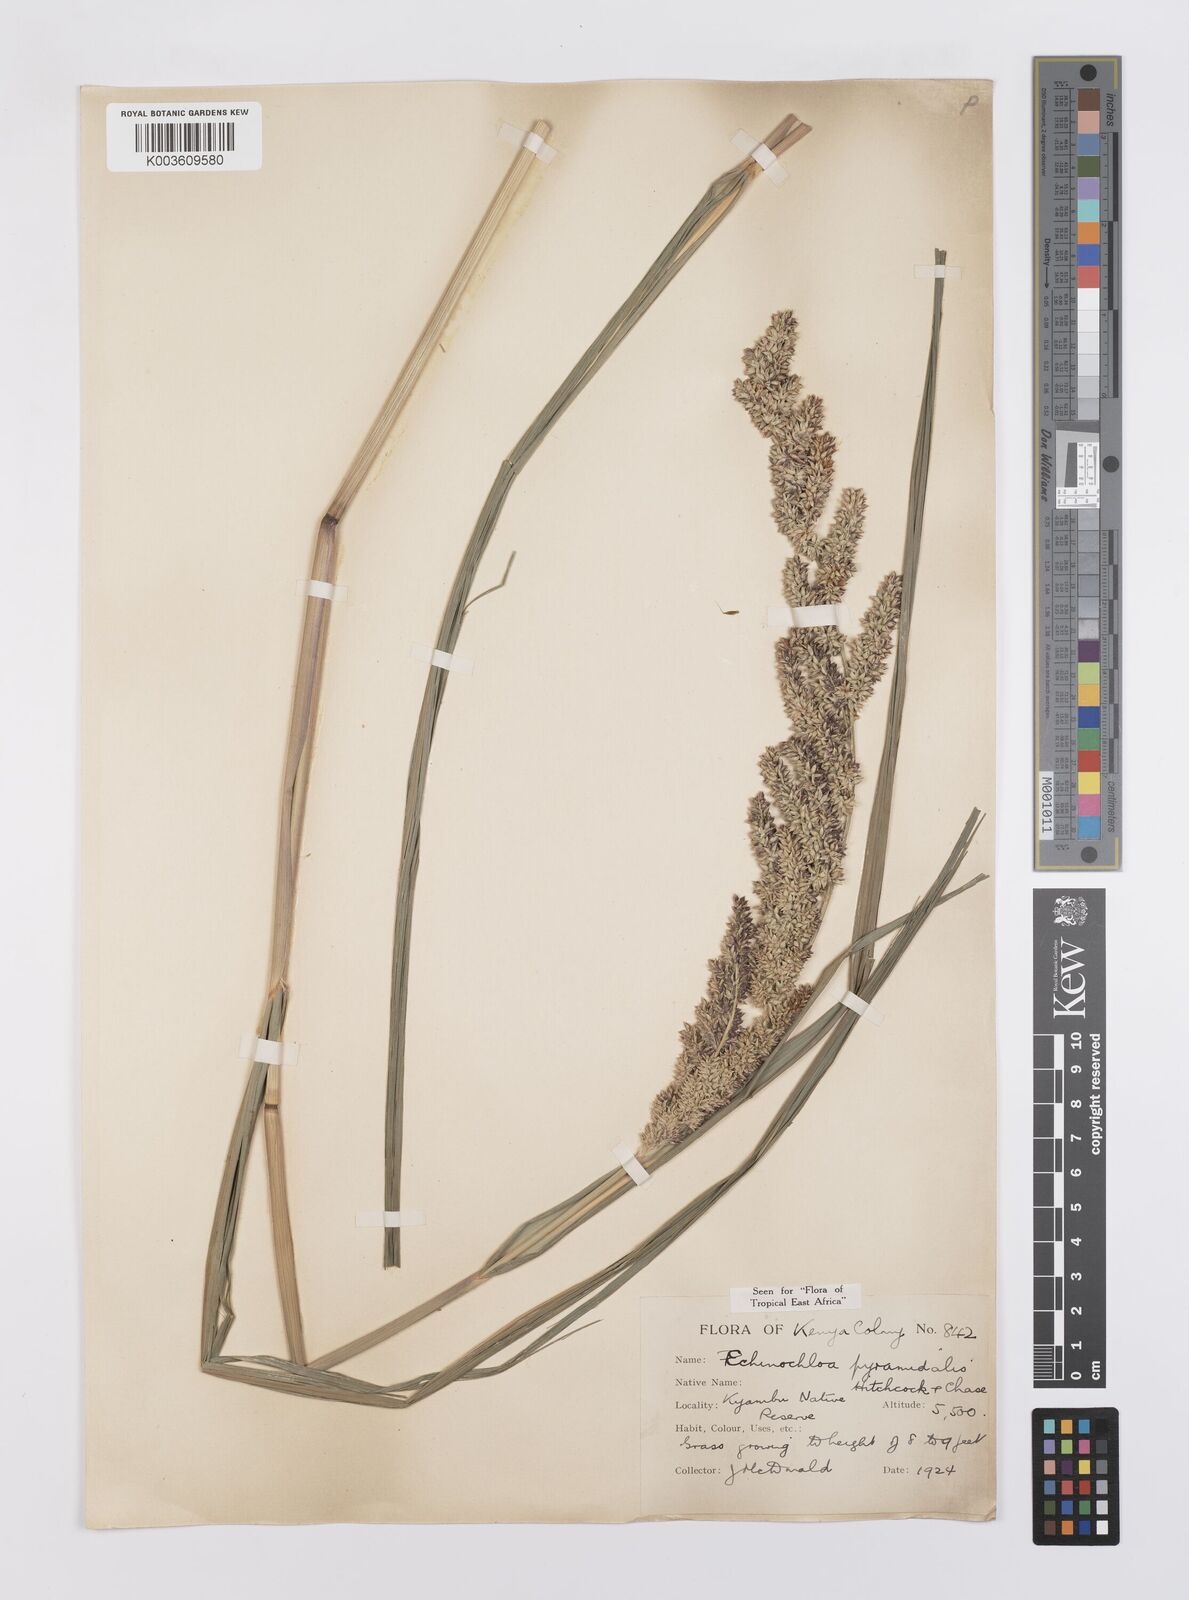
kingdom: Plantae
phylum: Tracheophyta
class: Liliopsida
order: Poales
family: Poaceae
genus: Echinochloa
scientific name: Echinochloa pyramidalis
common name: Antelope grass
